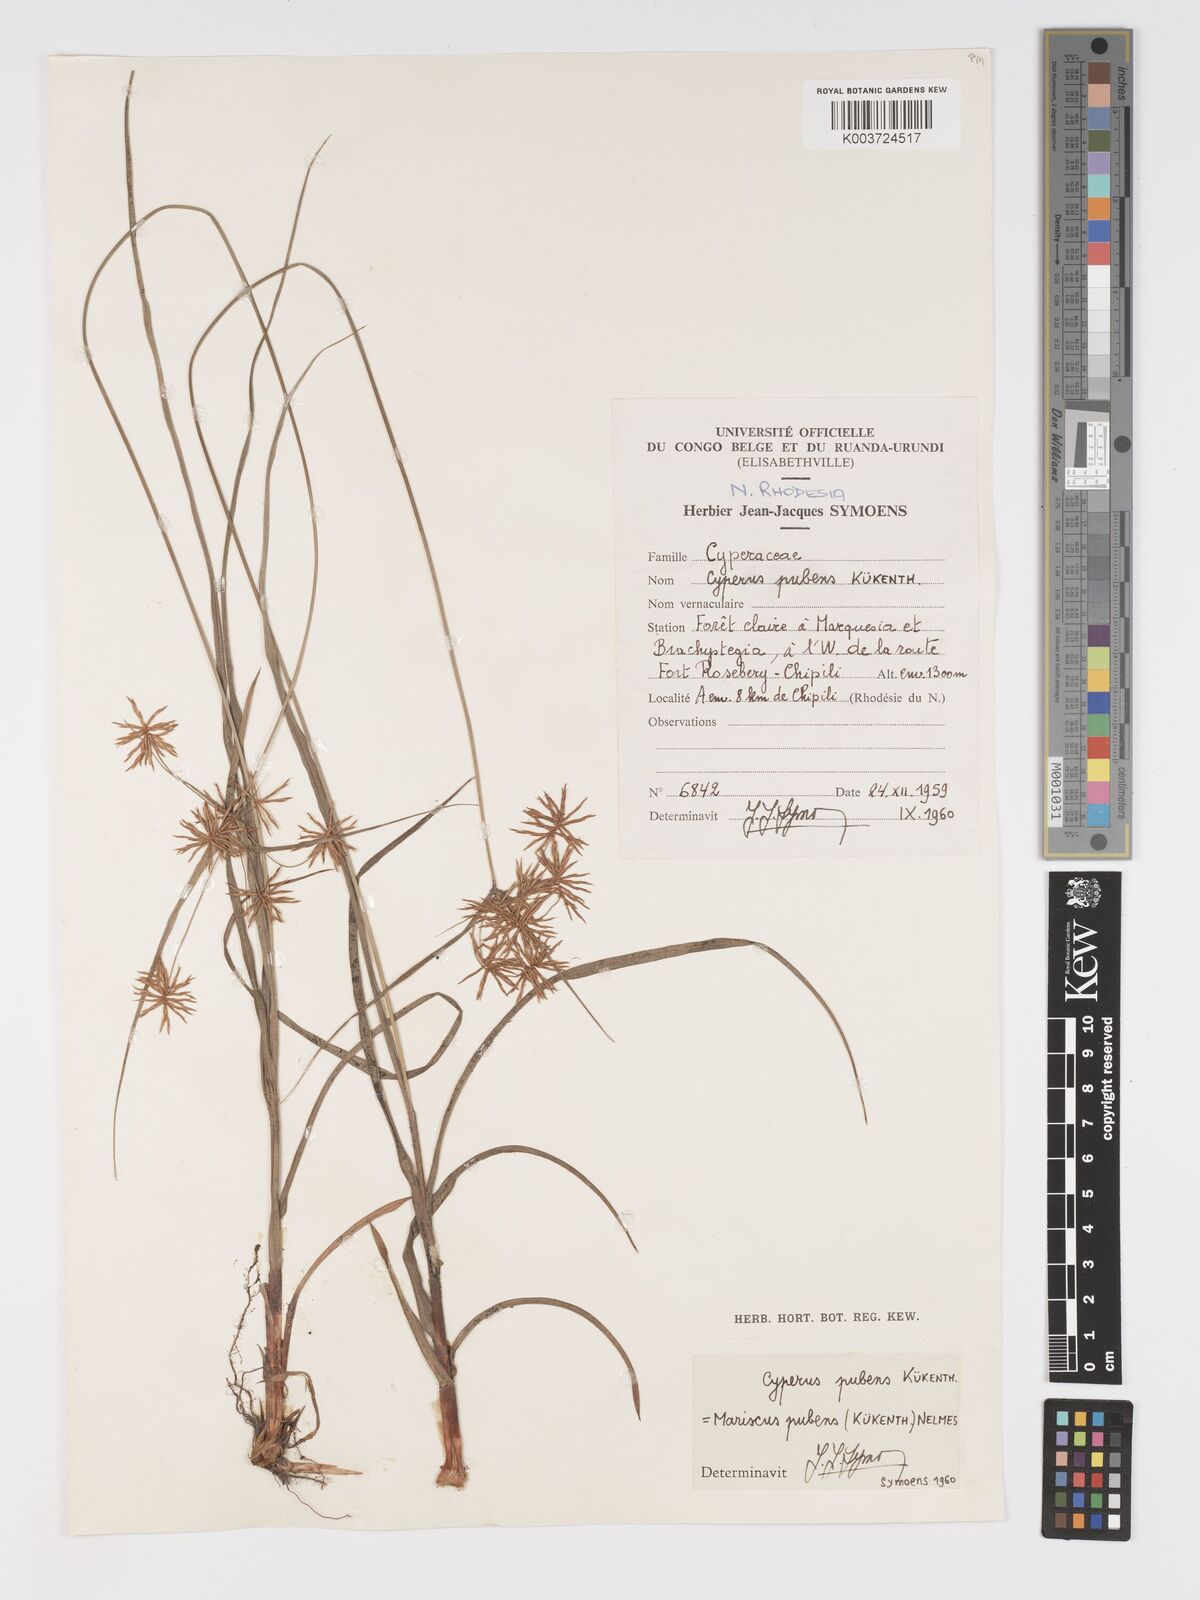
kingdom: Plantae
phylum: Tracheophyta
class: Liliopsida
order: Poales
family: Cyperaceae
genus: Cyperus
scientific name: Cyperus pubens
